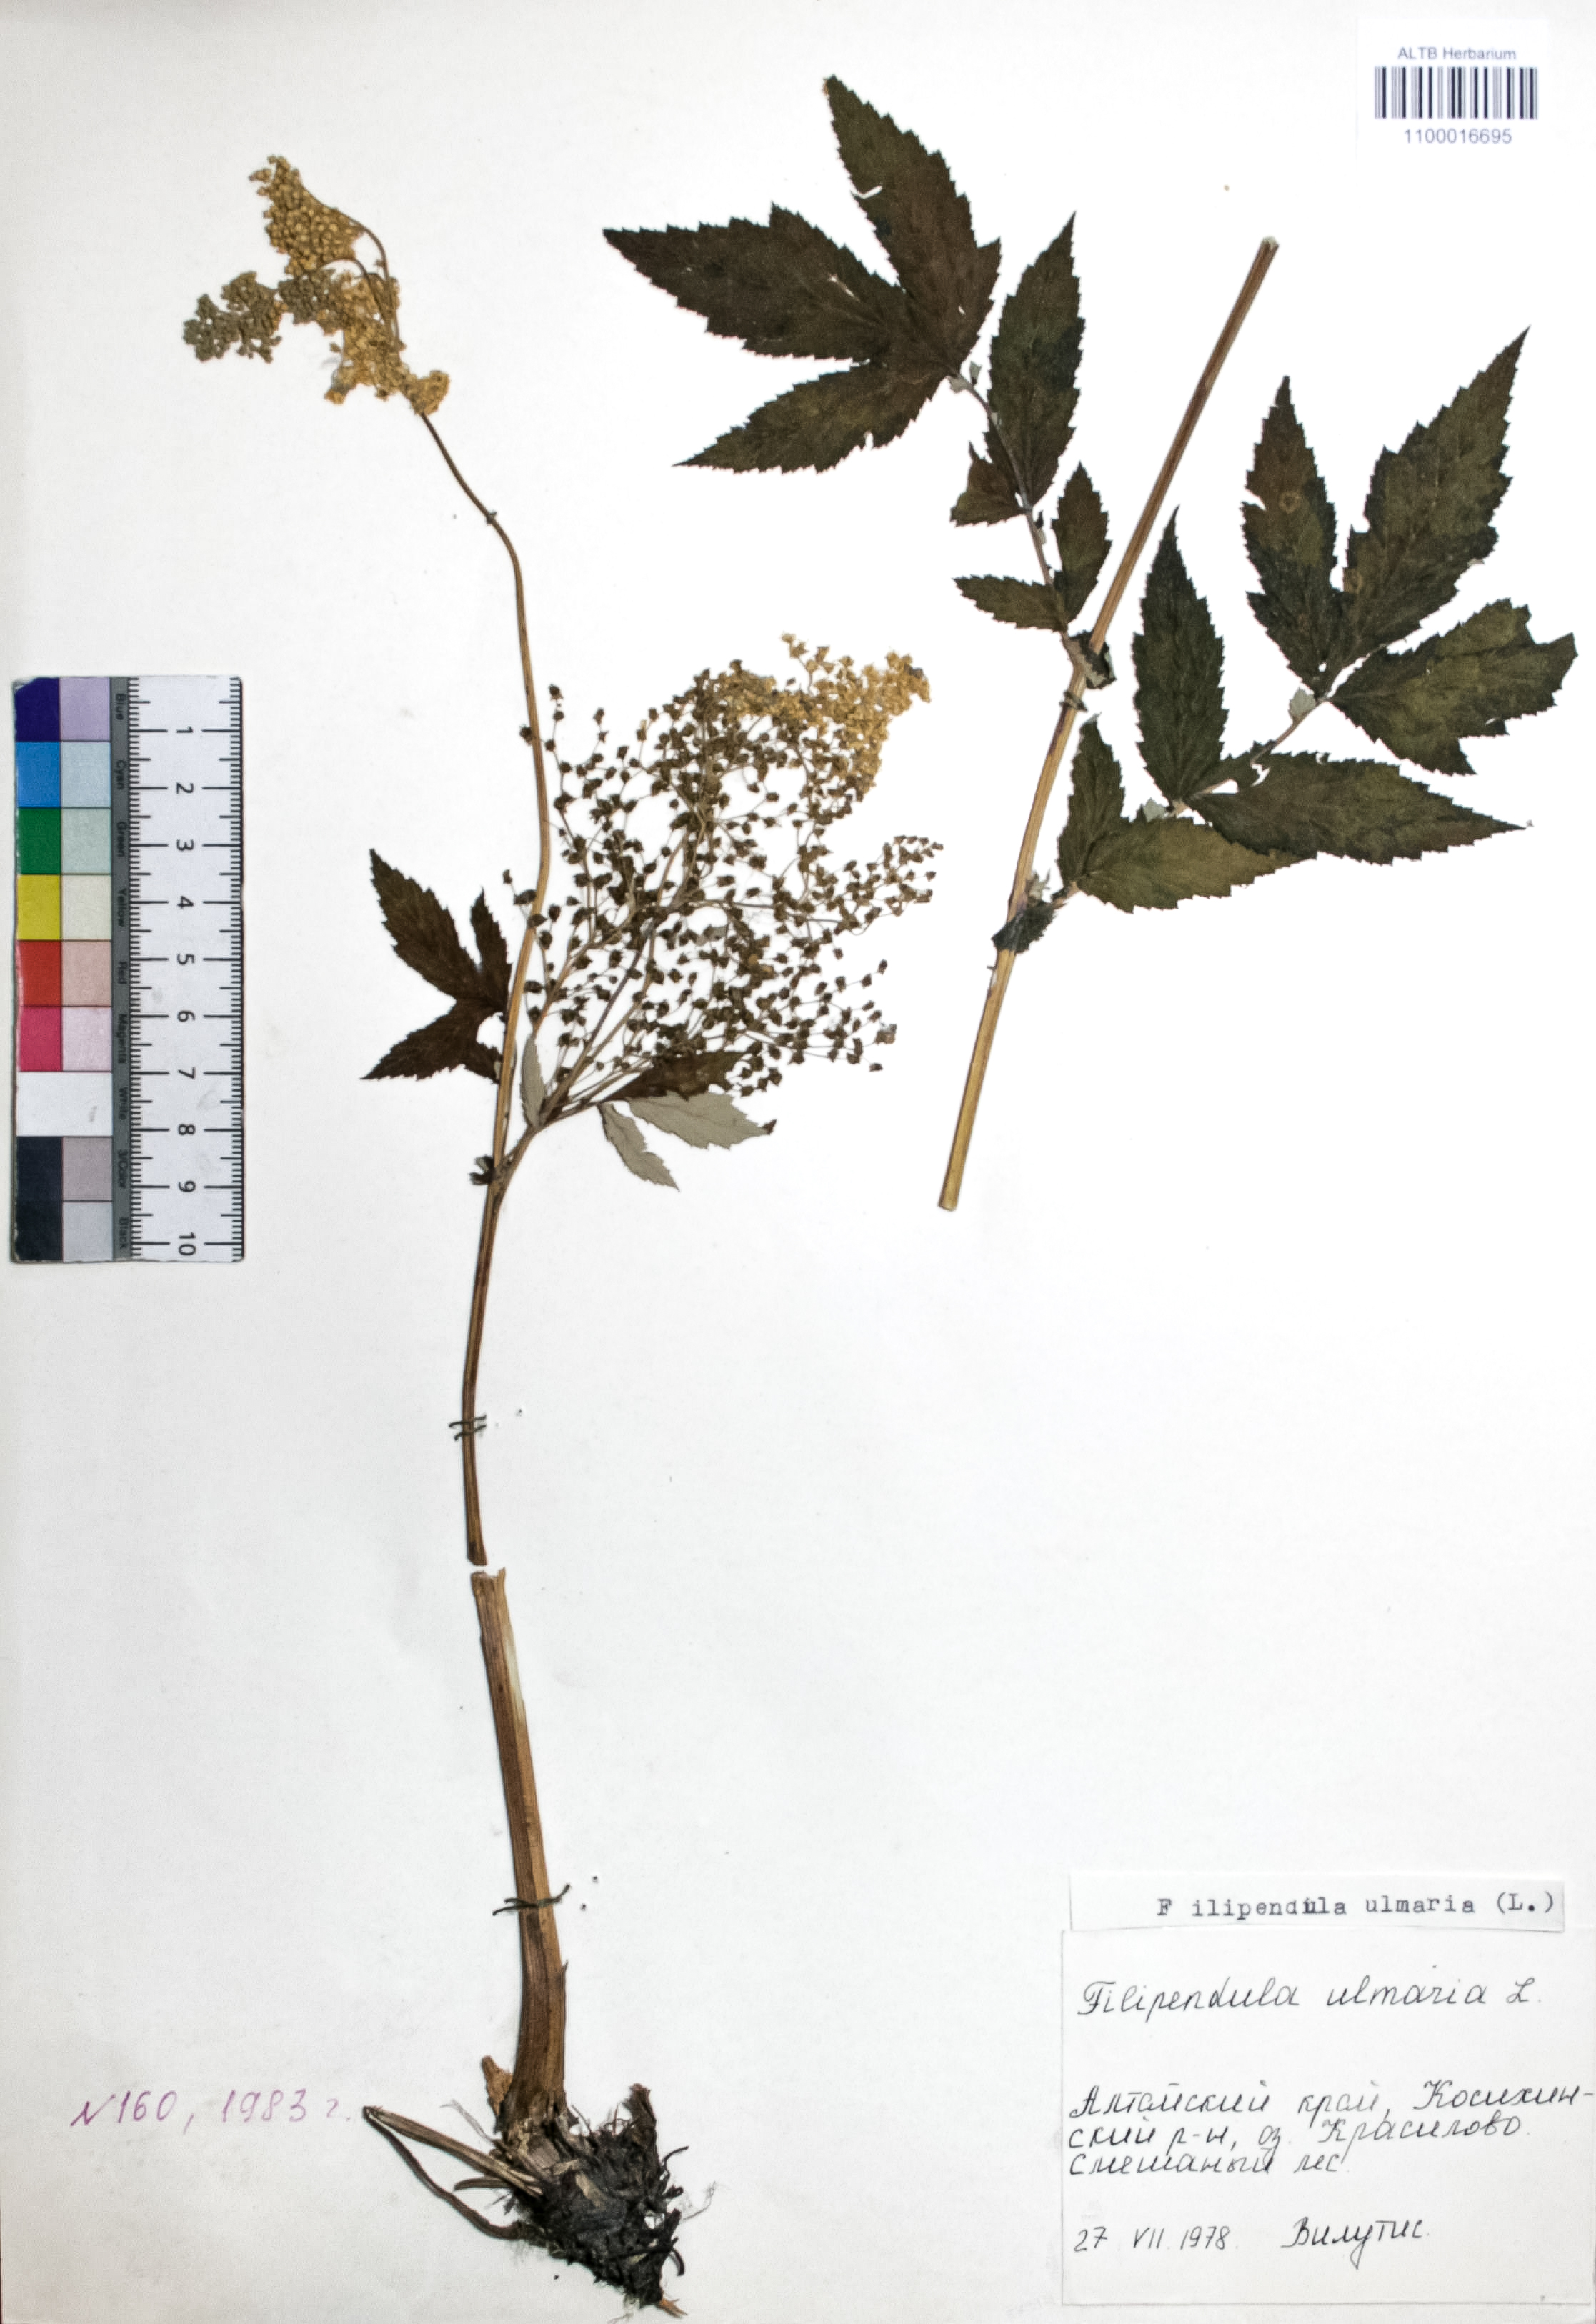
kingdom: Plantae
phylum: Tracheophyta
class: Magnoliopsida
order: Rosales
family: Rosaceae
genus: Filipendula
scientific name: Filipendula vulgaris
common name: Dropwort
